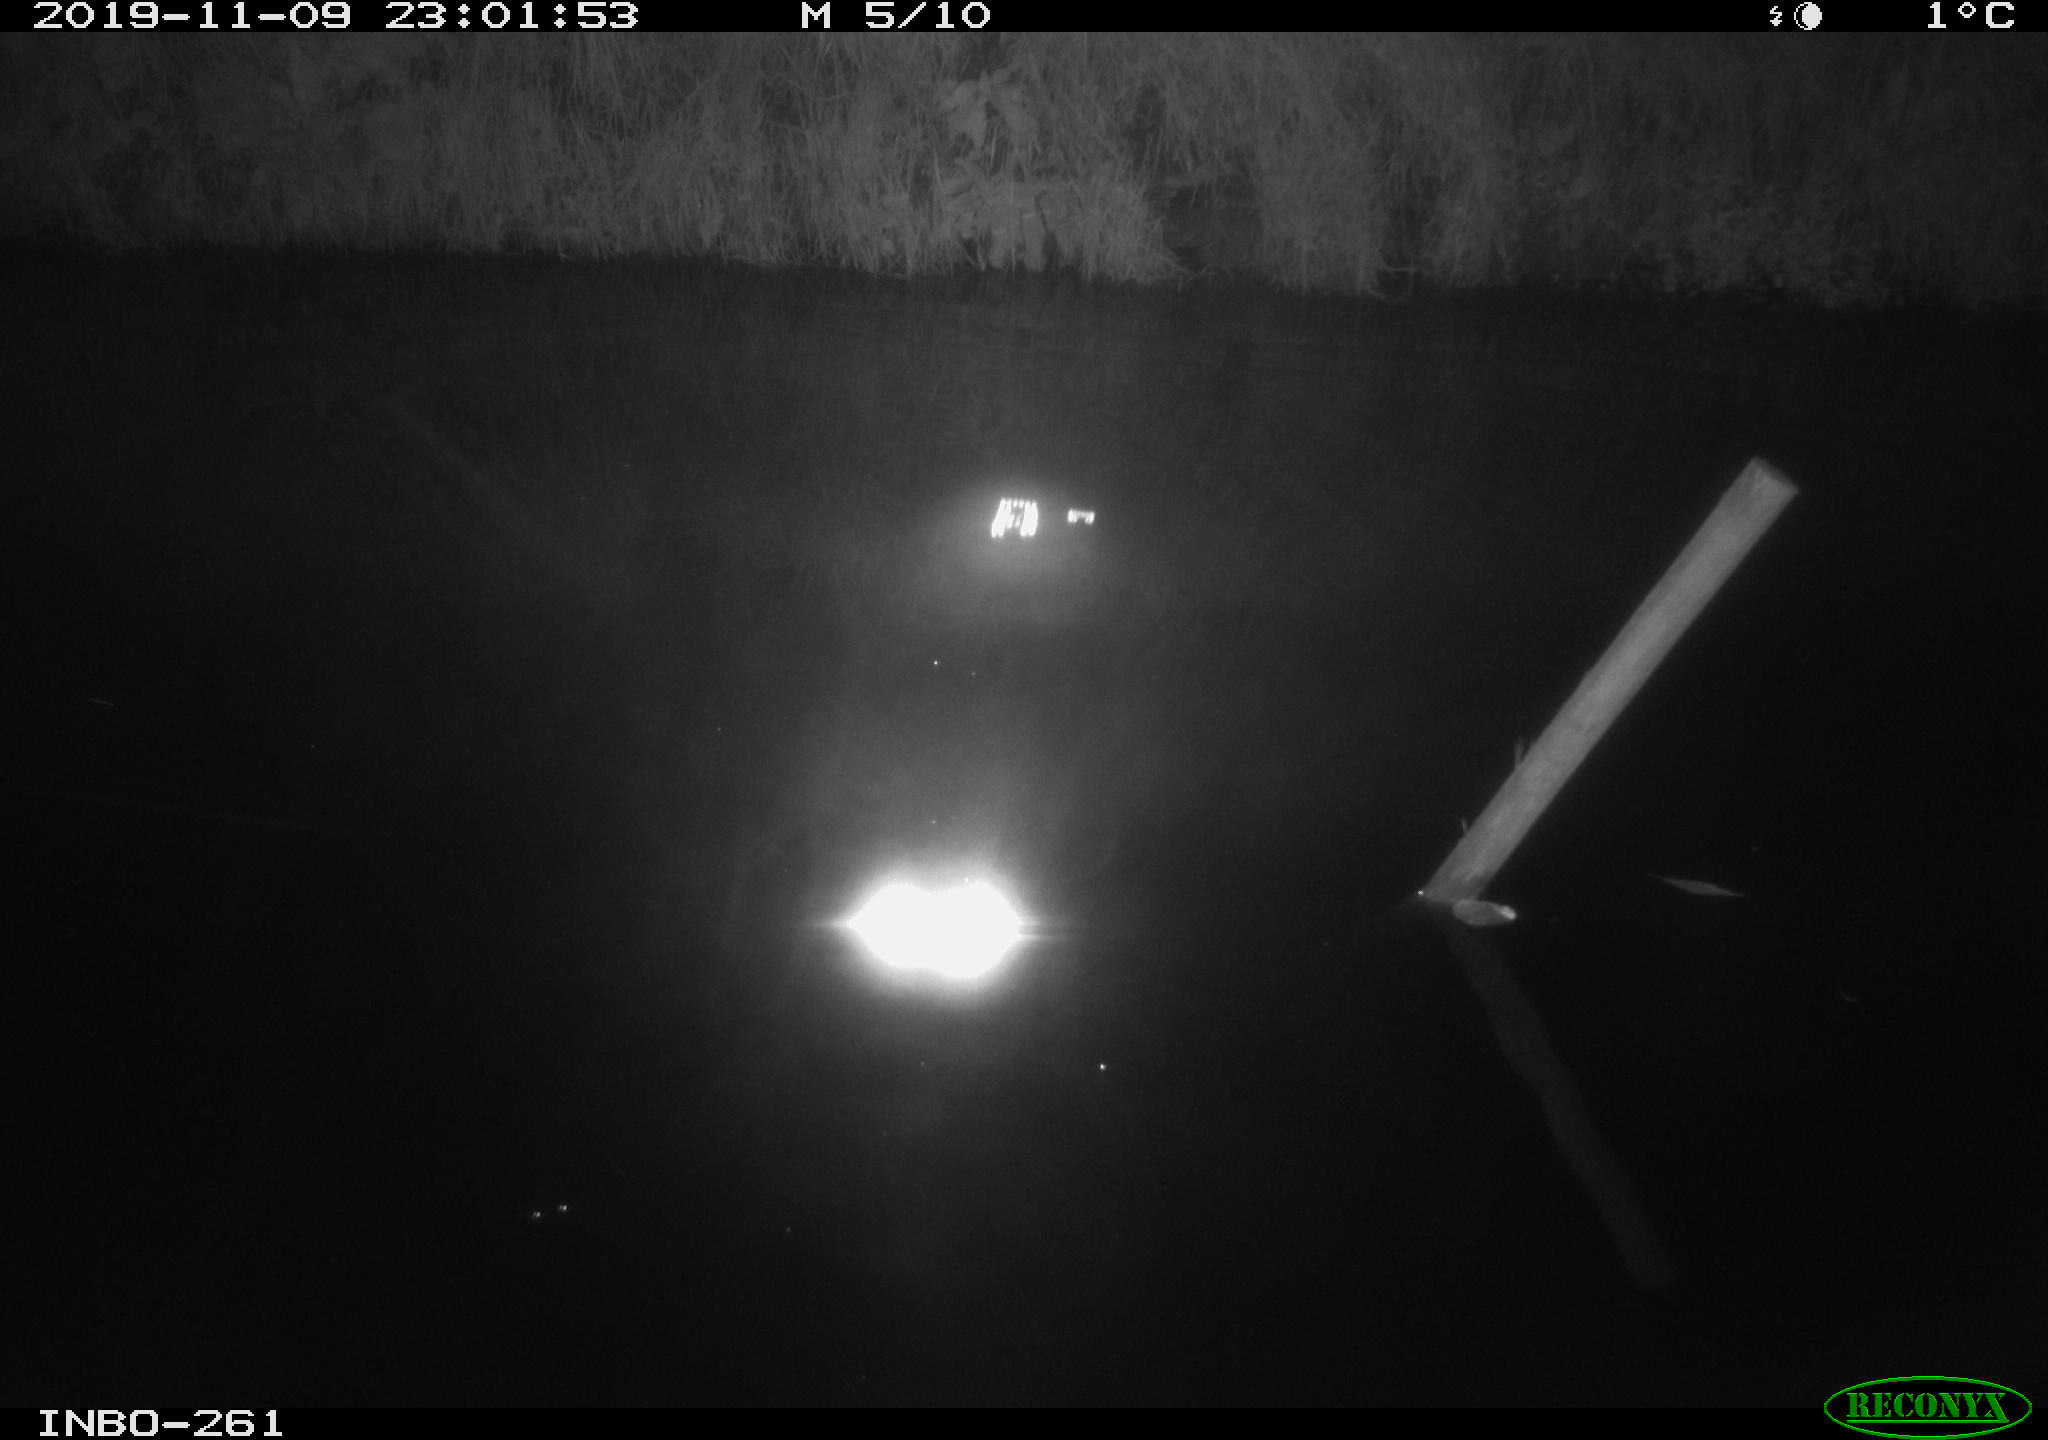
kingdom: Animalia
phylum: Chordata
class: Aves
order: Anseriformes
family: Anatidae
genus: Anas
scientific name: Anas platyrhynchos
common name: Mallard
